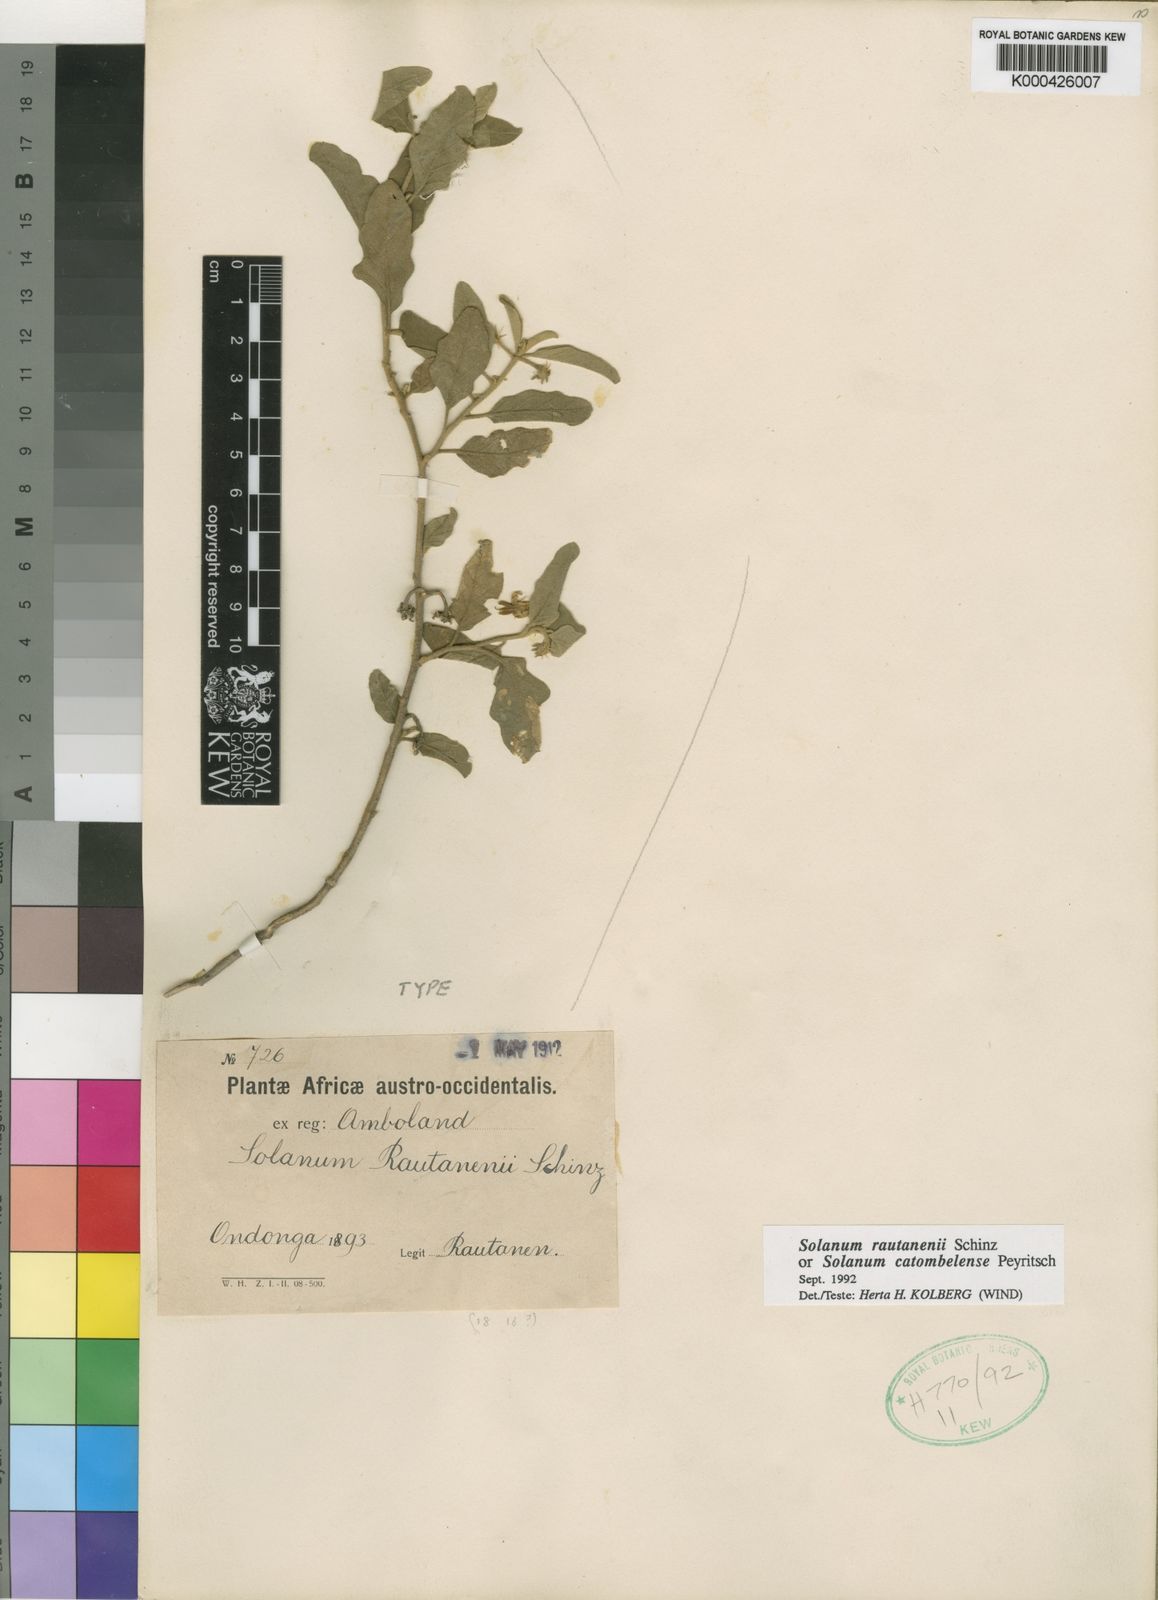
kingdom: Plantae
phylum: Tracheophyta
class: Magnoliopsida
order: Solanales
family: Solanaceae
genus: Solanum
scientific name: Solanum catombelense
